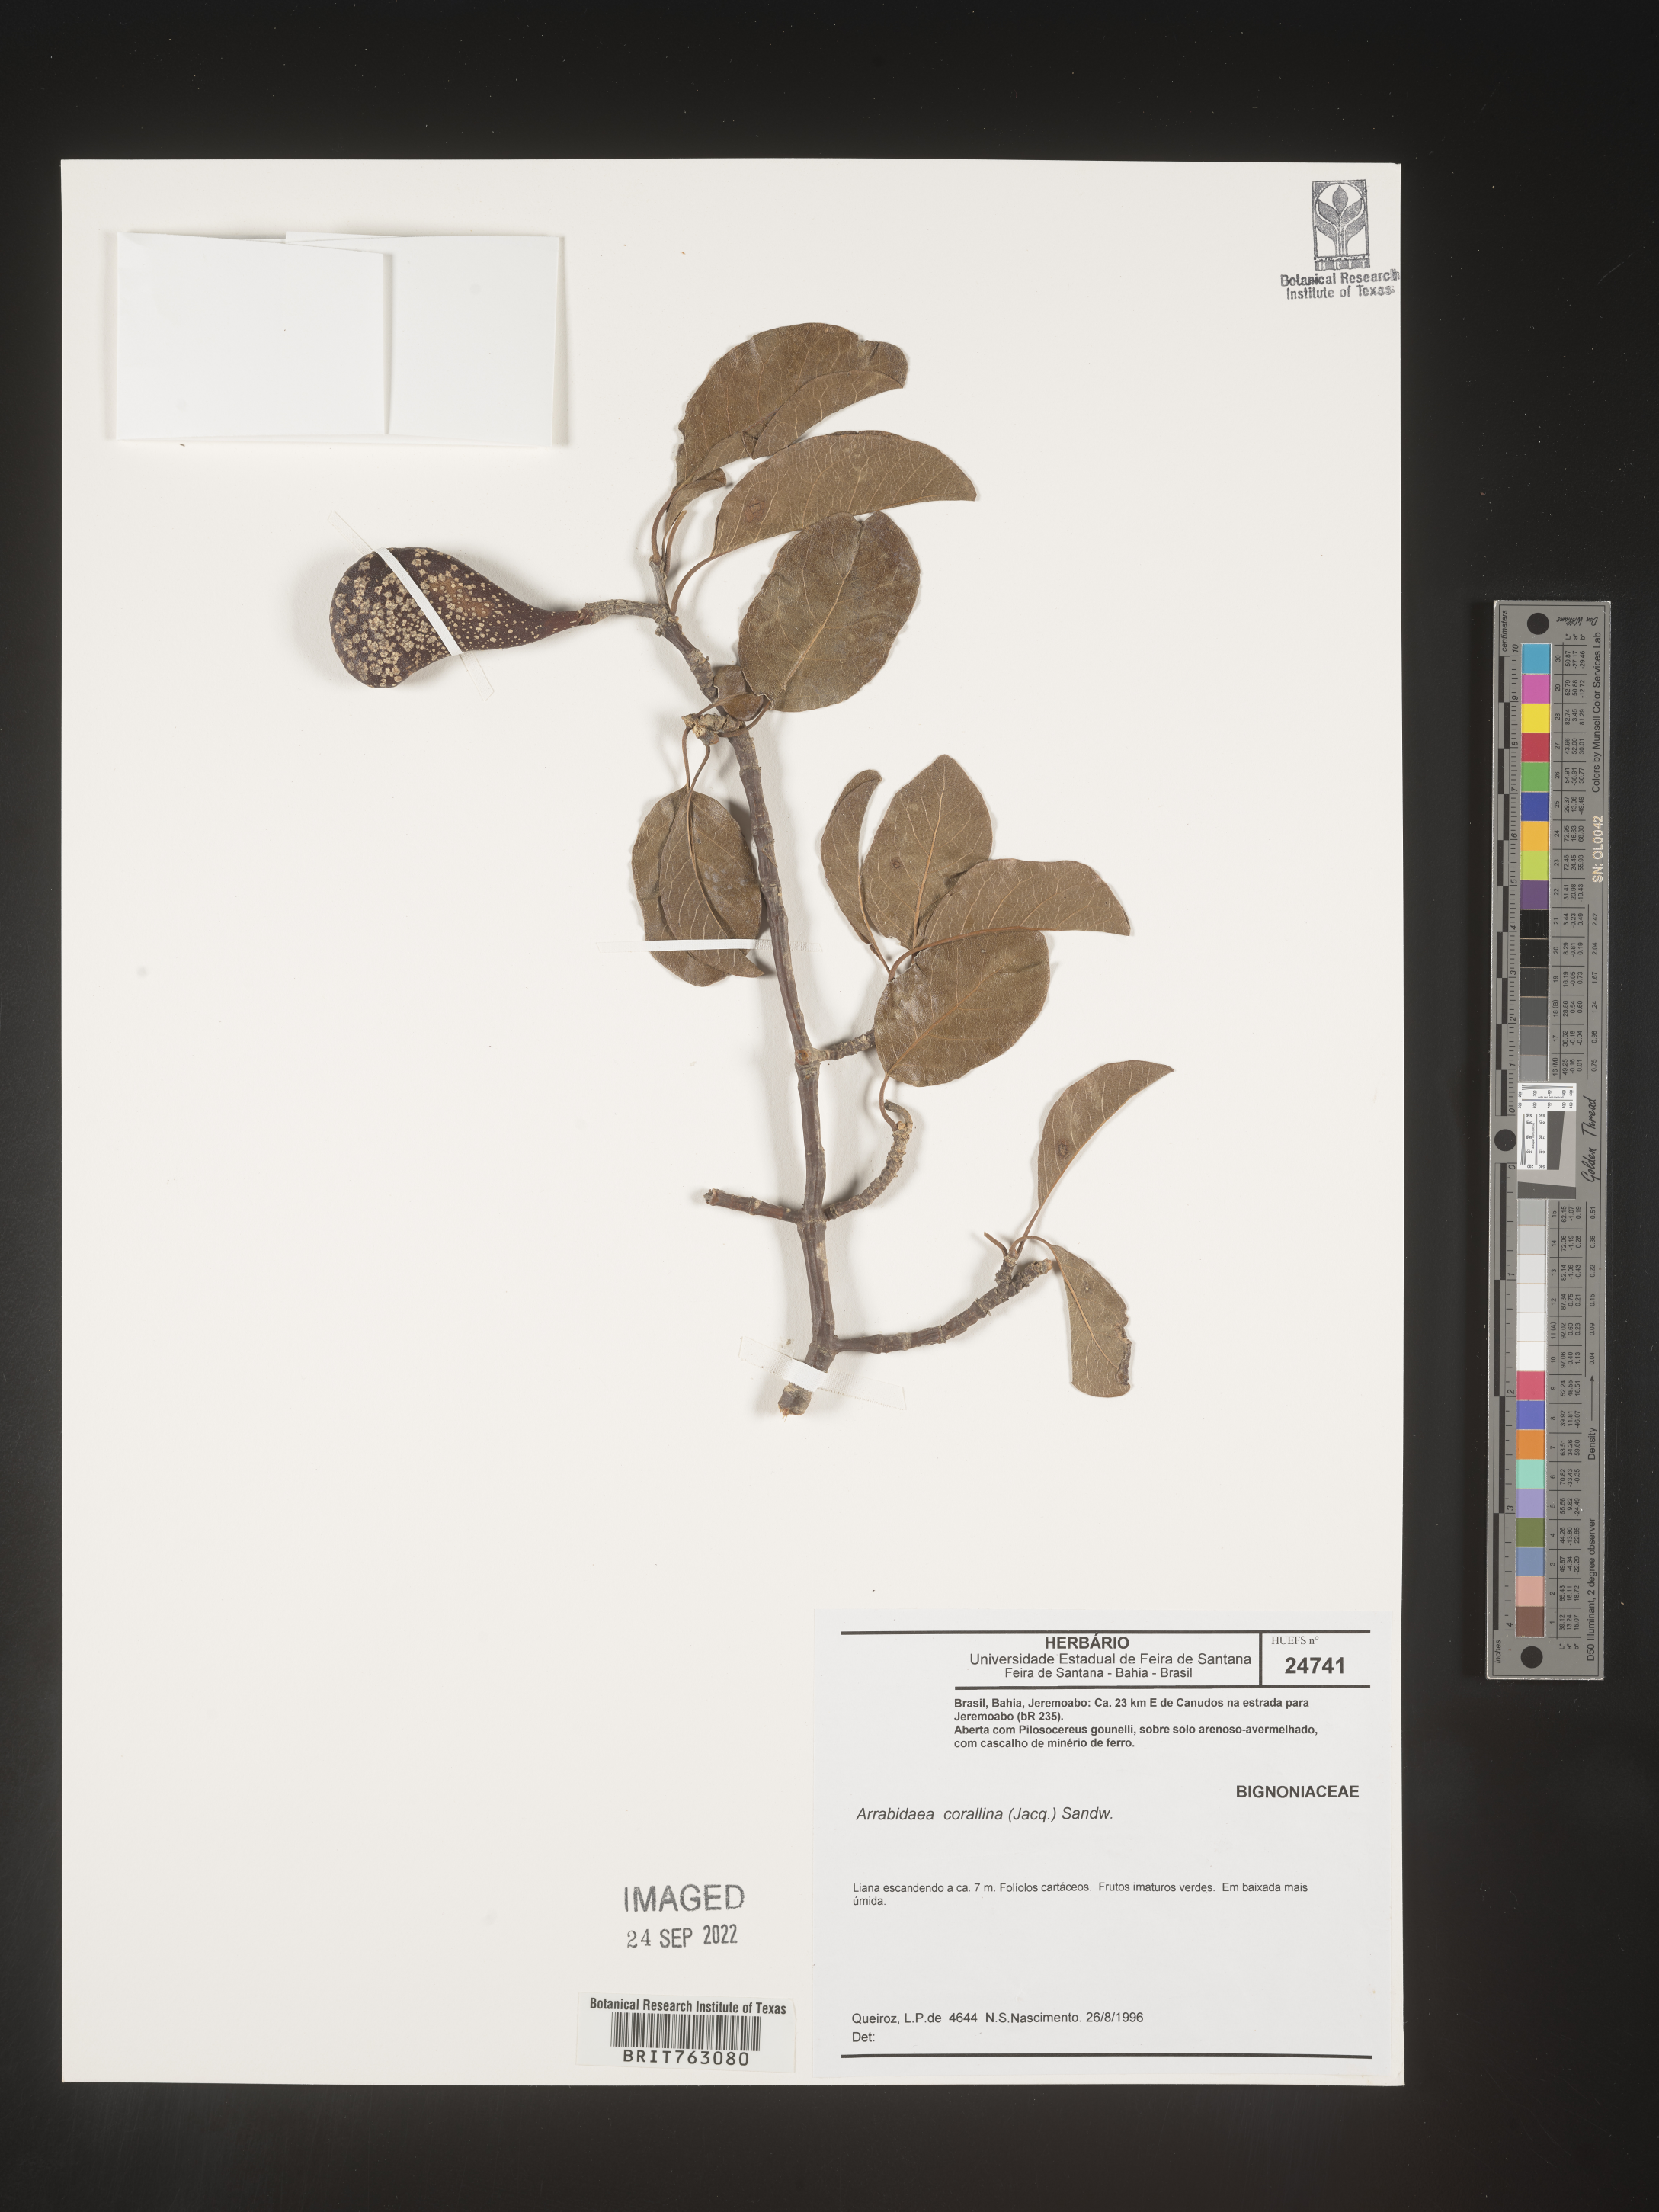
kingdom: Plantae
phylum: Tracheophyta
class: Magnoliopsida
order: Rosales
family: Rhamnaceae
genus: Arrabidaea
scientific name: Arrabidaea
